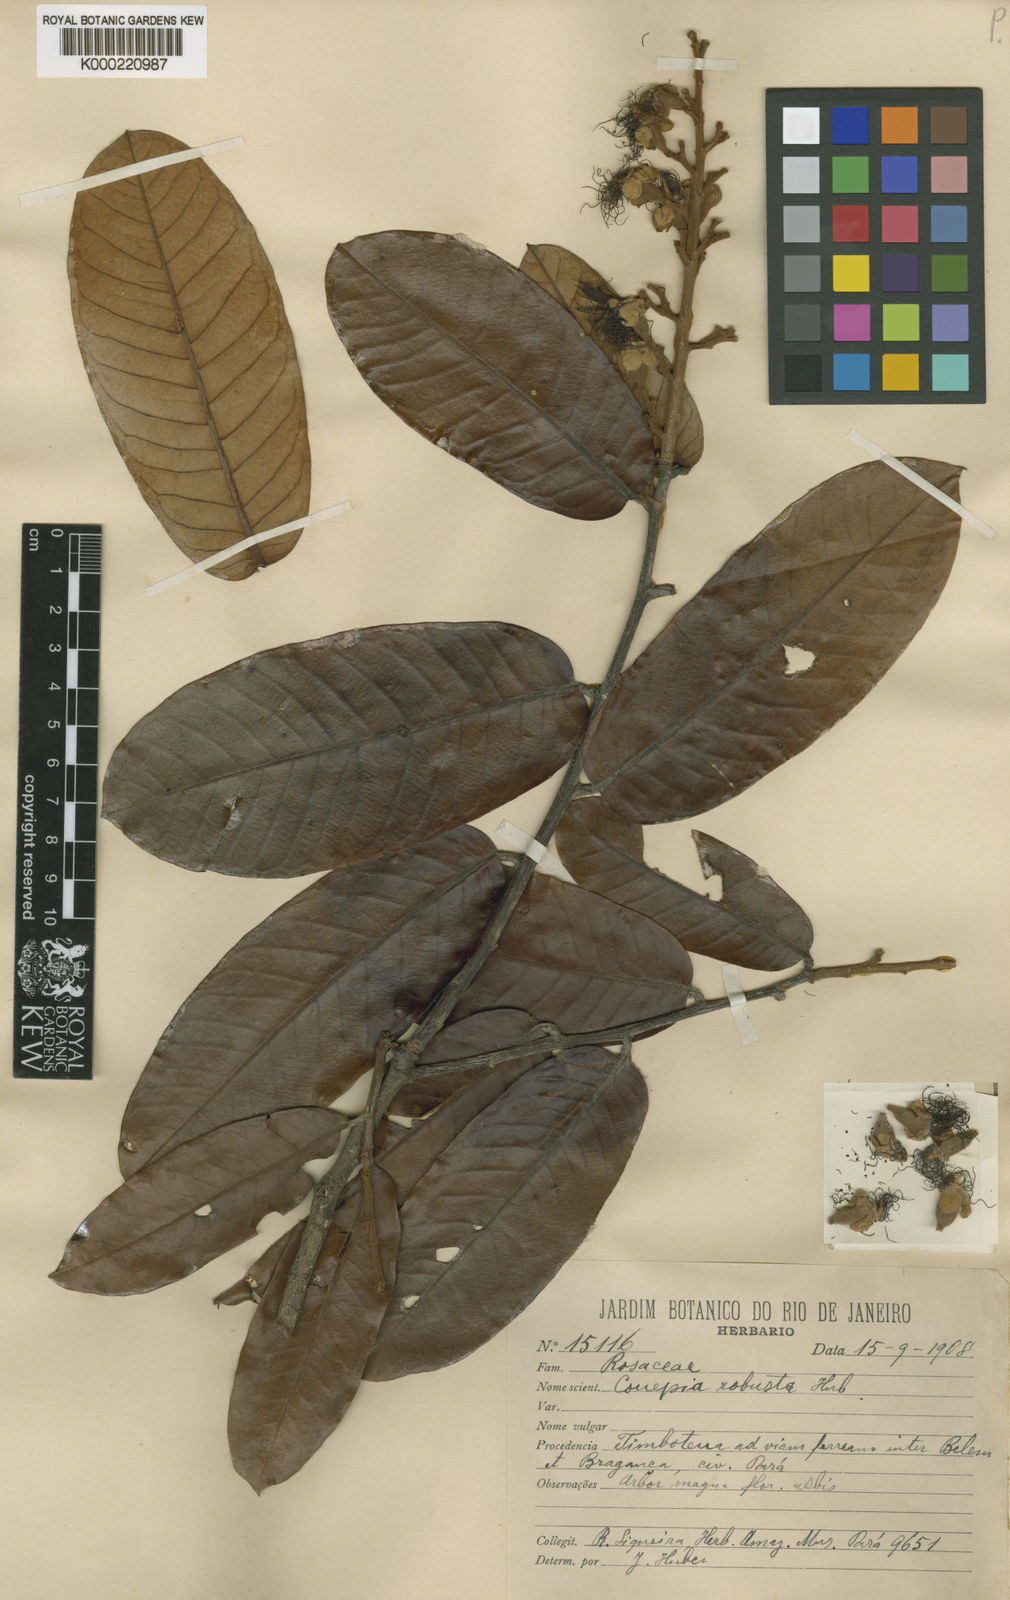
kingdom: Plantae
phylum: Tracheophyta
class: Magnoliopsida
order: Malpighiales
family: Chrysobalanaceae
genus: Couepia
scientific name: Couepia robusta
